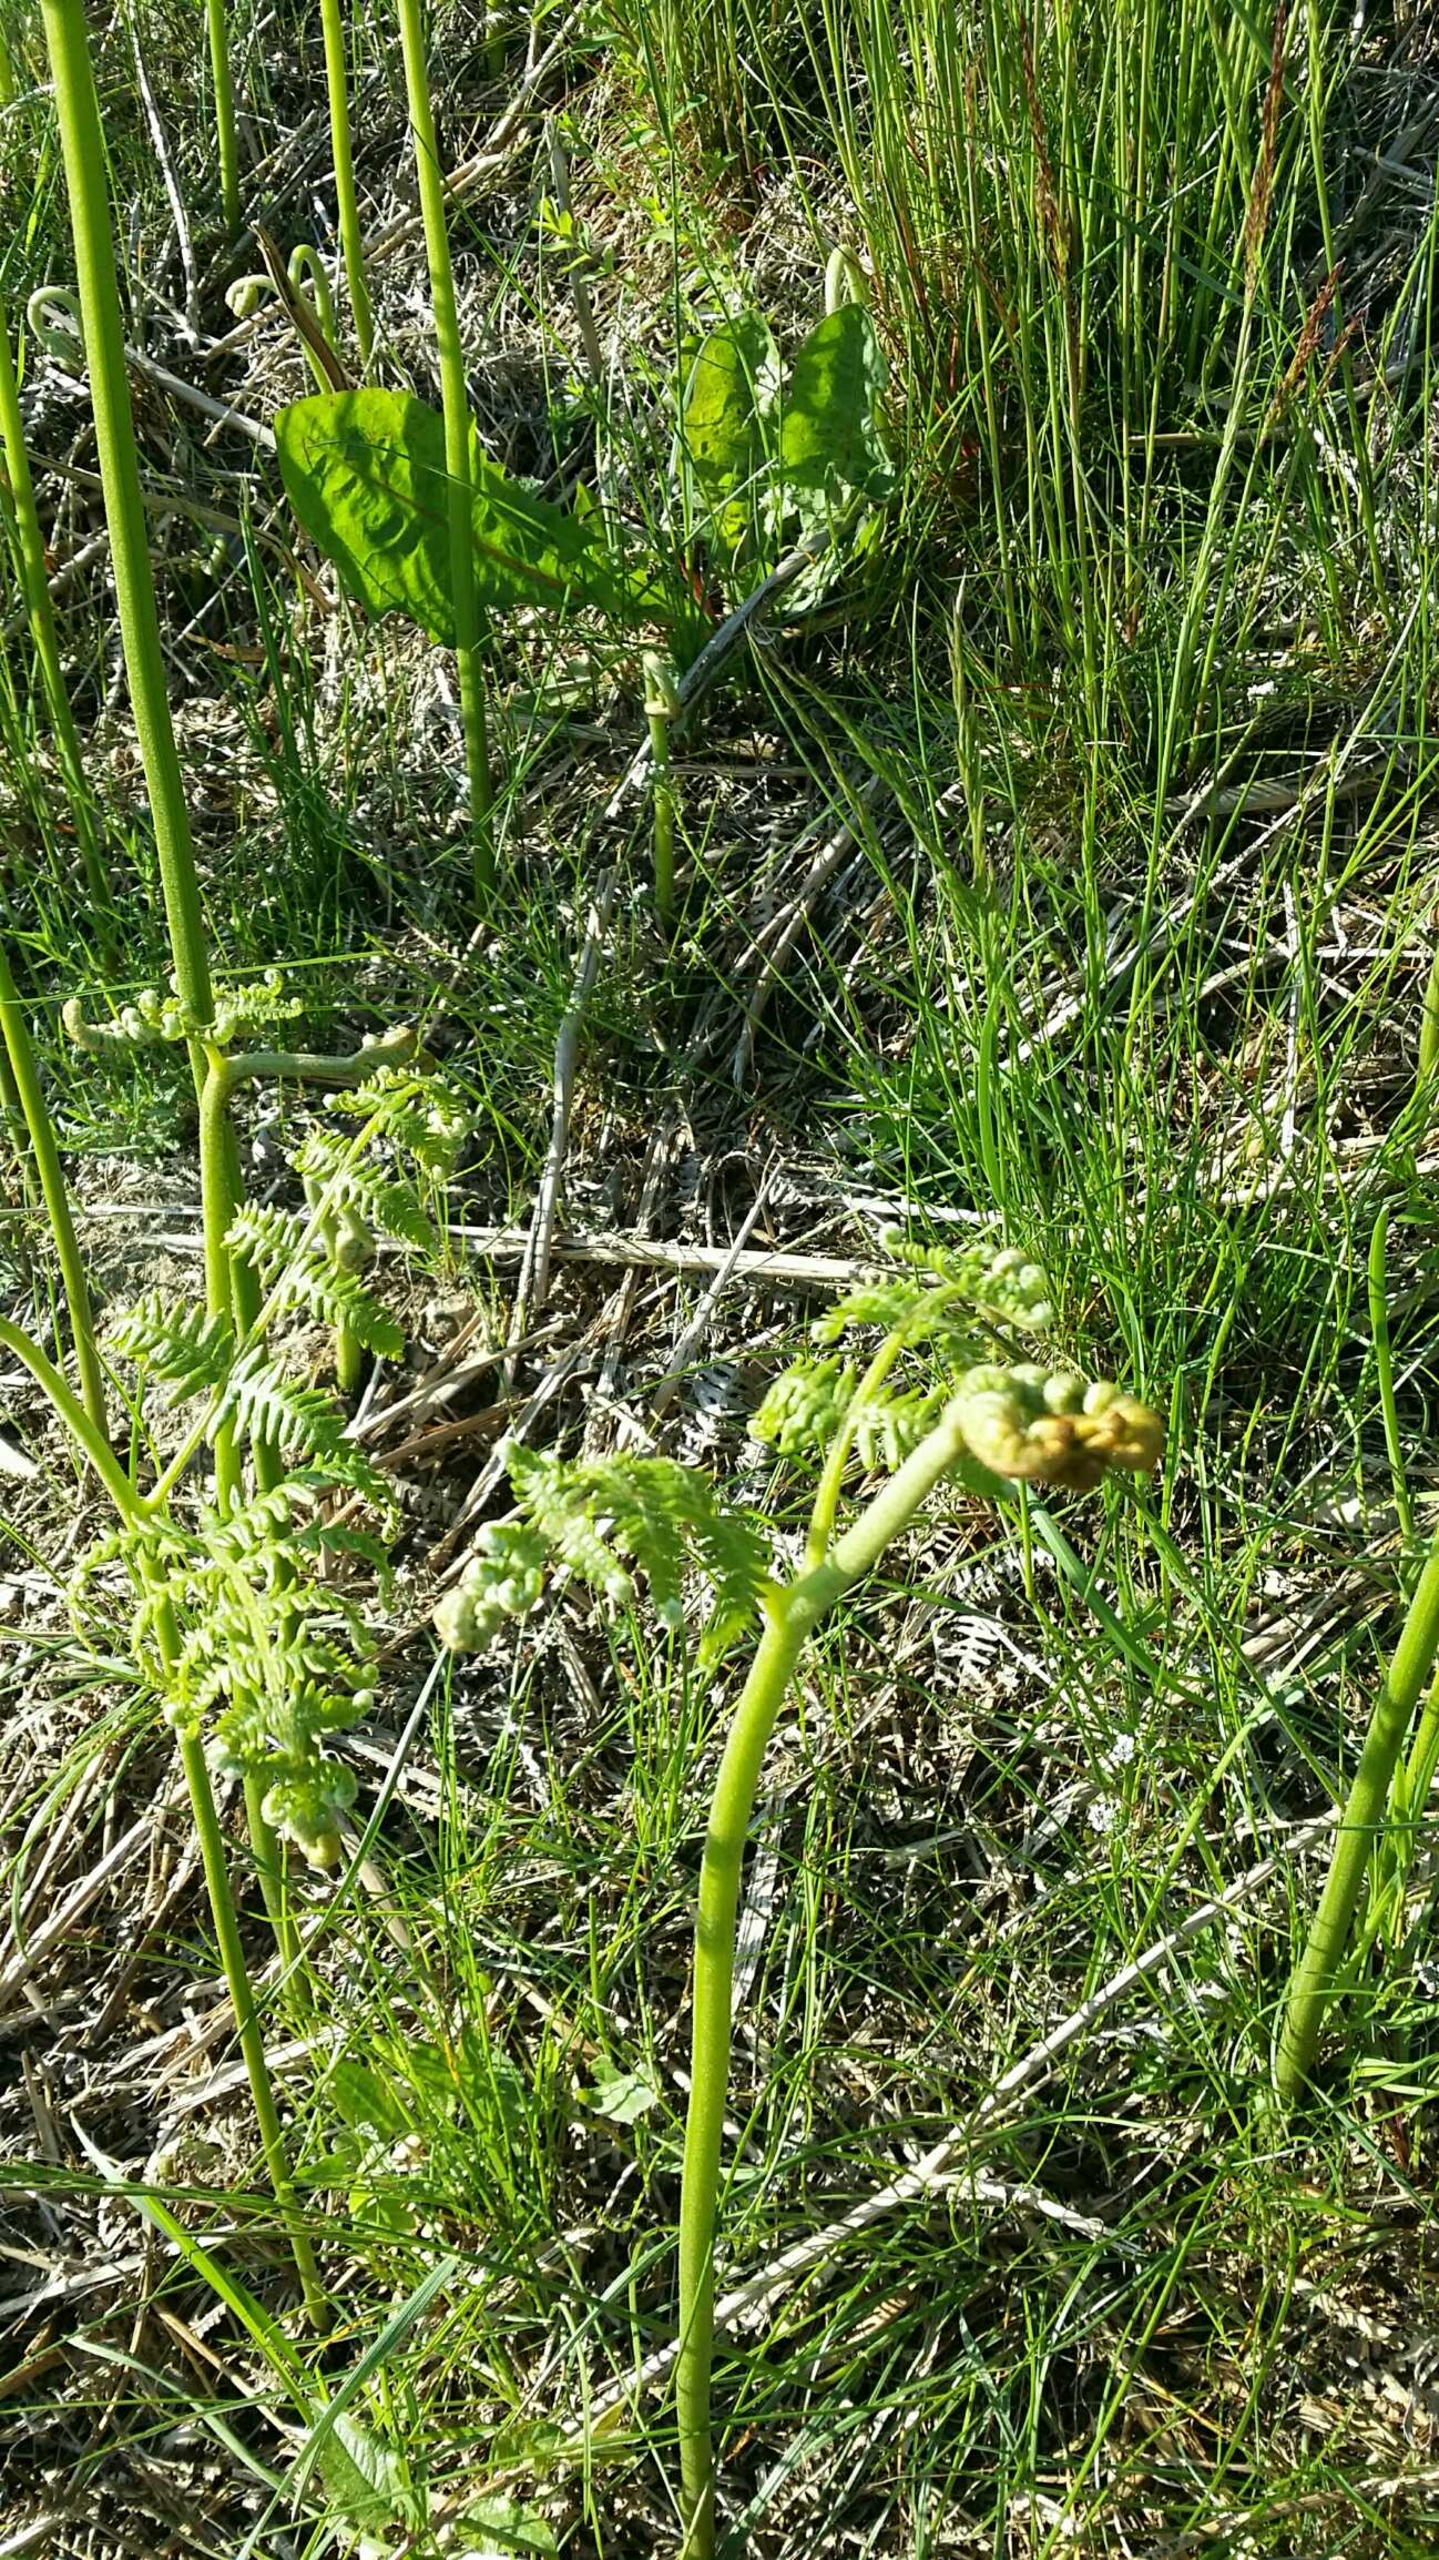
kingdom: Plantae
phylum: Tracheophyta
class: Polypodiopsida
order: Polypodiales
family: Dennstaedtiaceae
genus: Pteridium
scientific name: Pteridium aquilinum
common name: Ørnebregne
